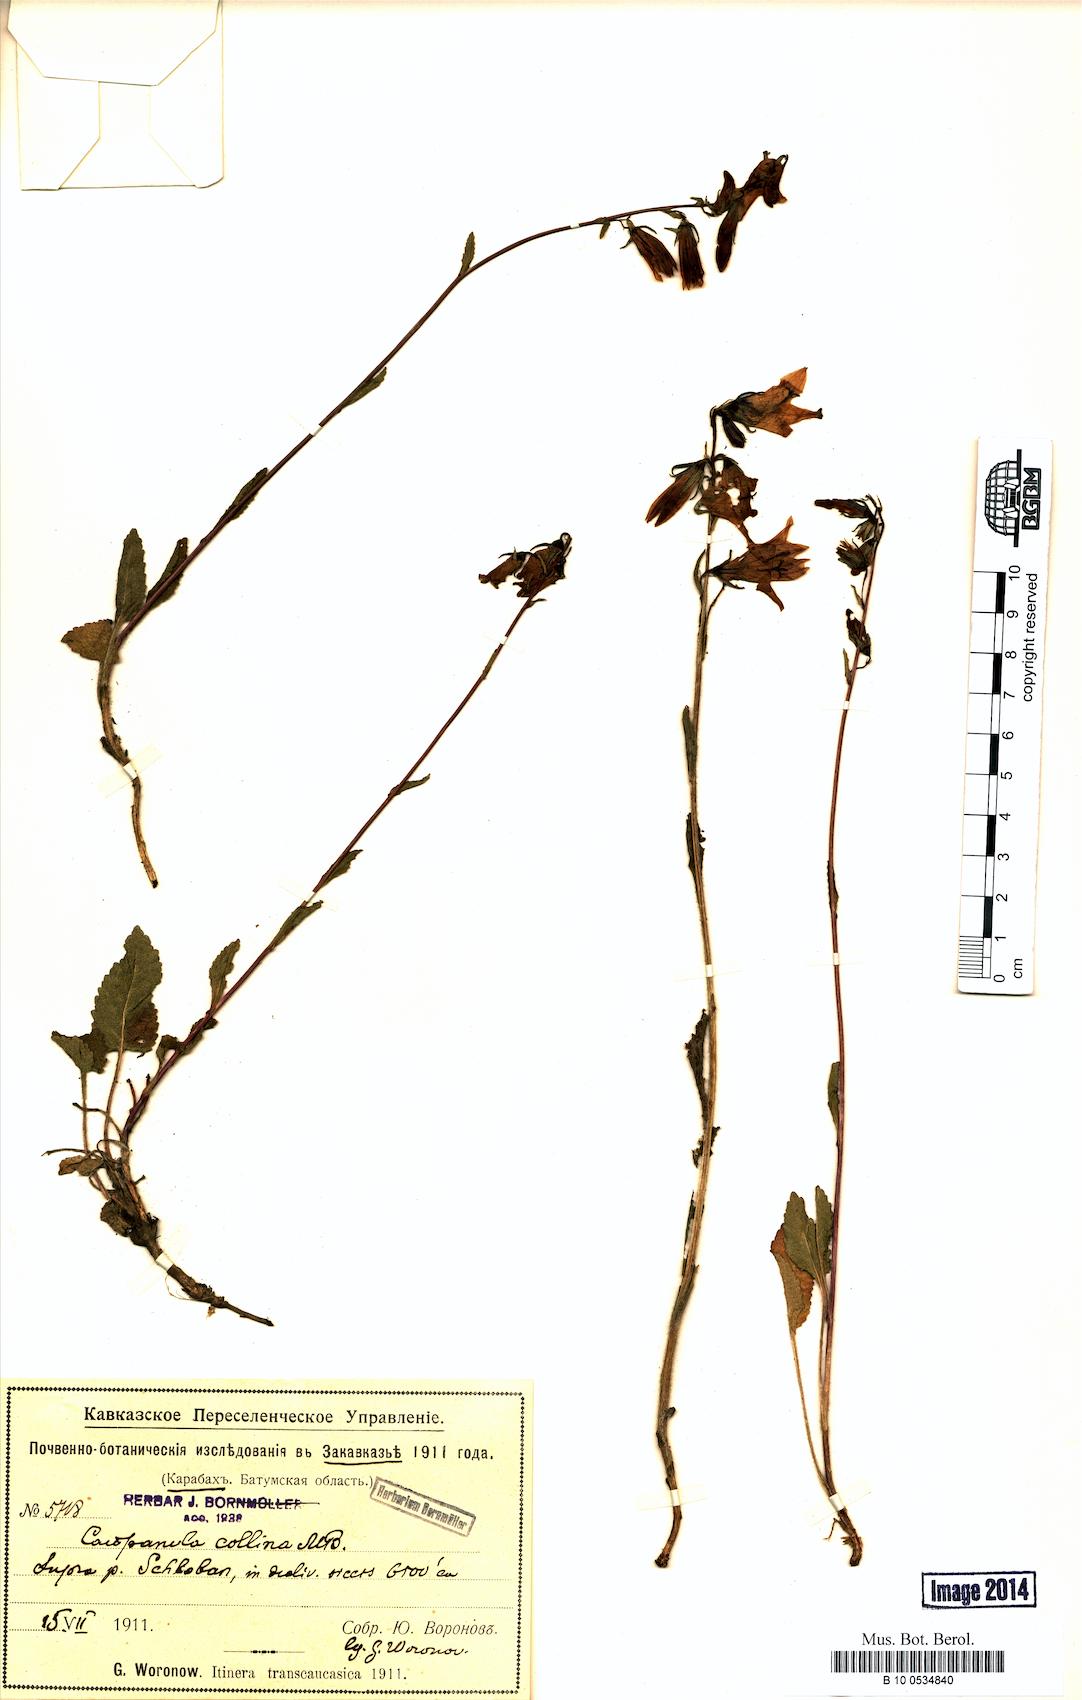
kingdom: Plantae
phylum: Tracheophyta
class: Magnoliopsida
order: Asterales
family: Campanulaceae
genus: Campanula
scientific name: Campanula collina
